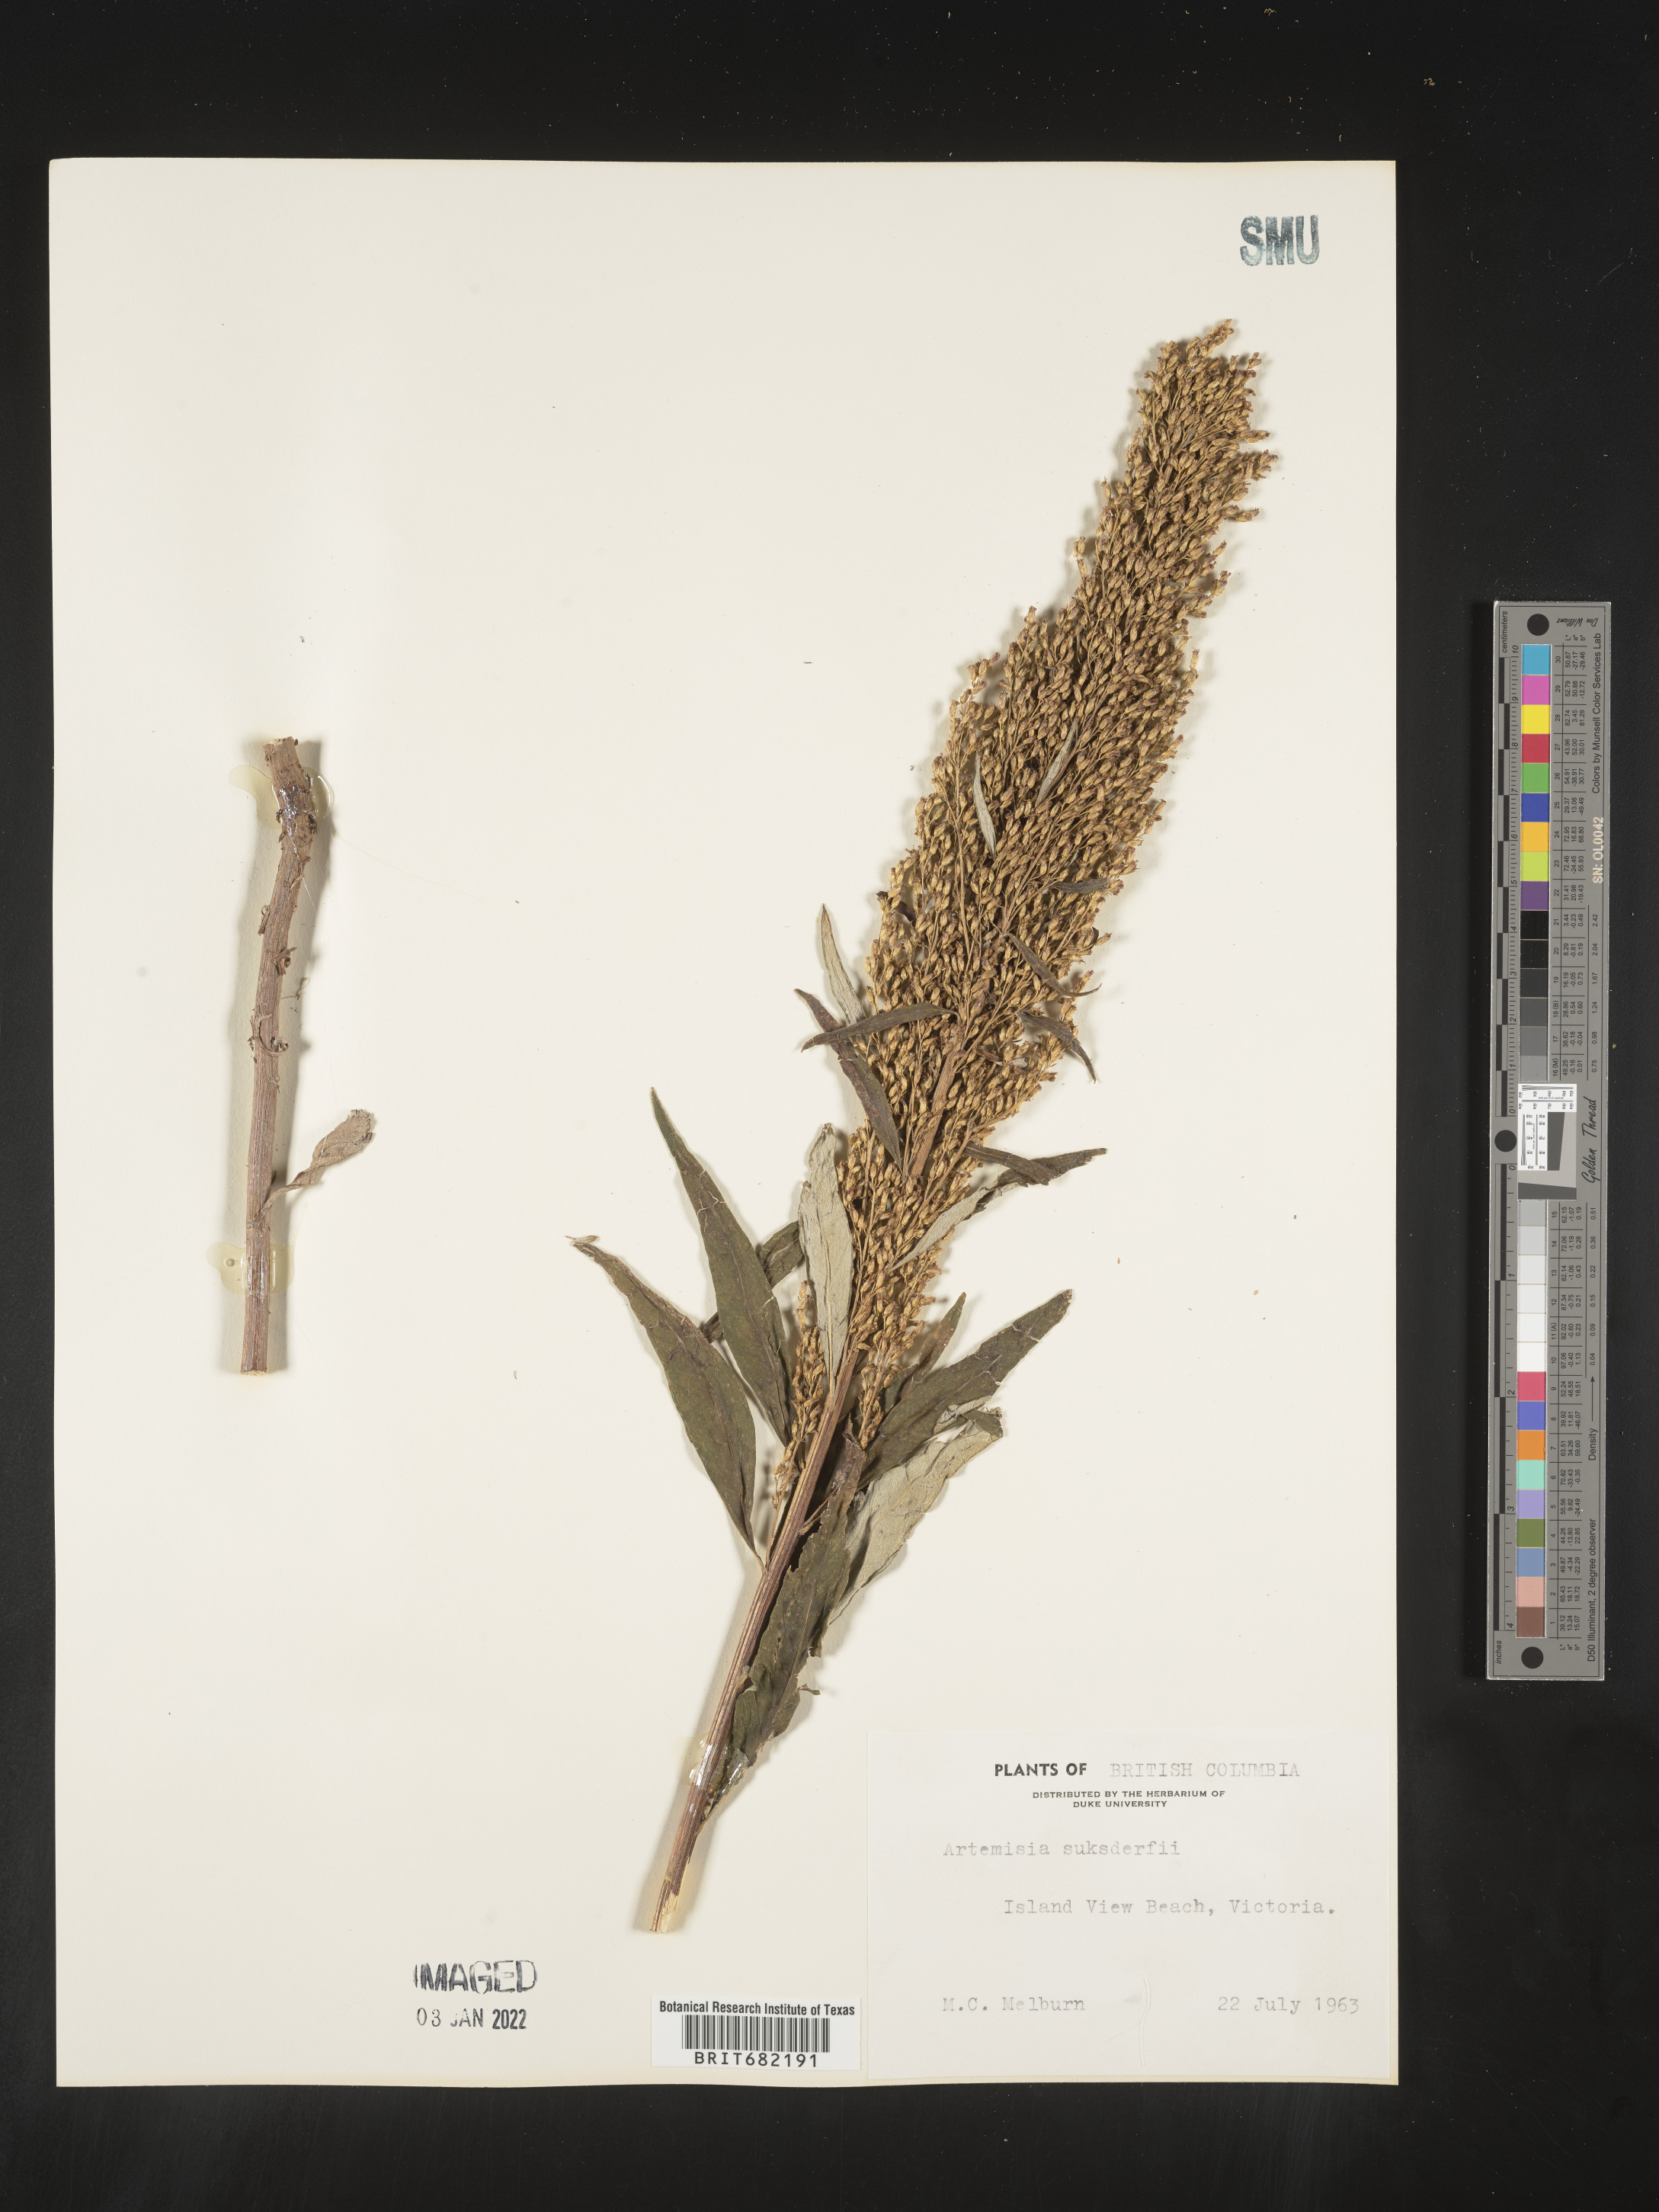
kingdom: Plantae
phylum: Tracheophyta
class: Magnoliopsida
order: Asterales
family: Asteraceae
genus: Artemisia
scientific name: Artemisia suksdorfii
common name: Suksdorf sagewort
